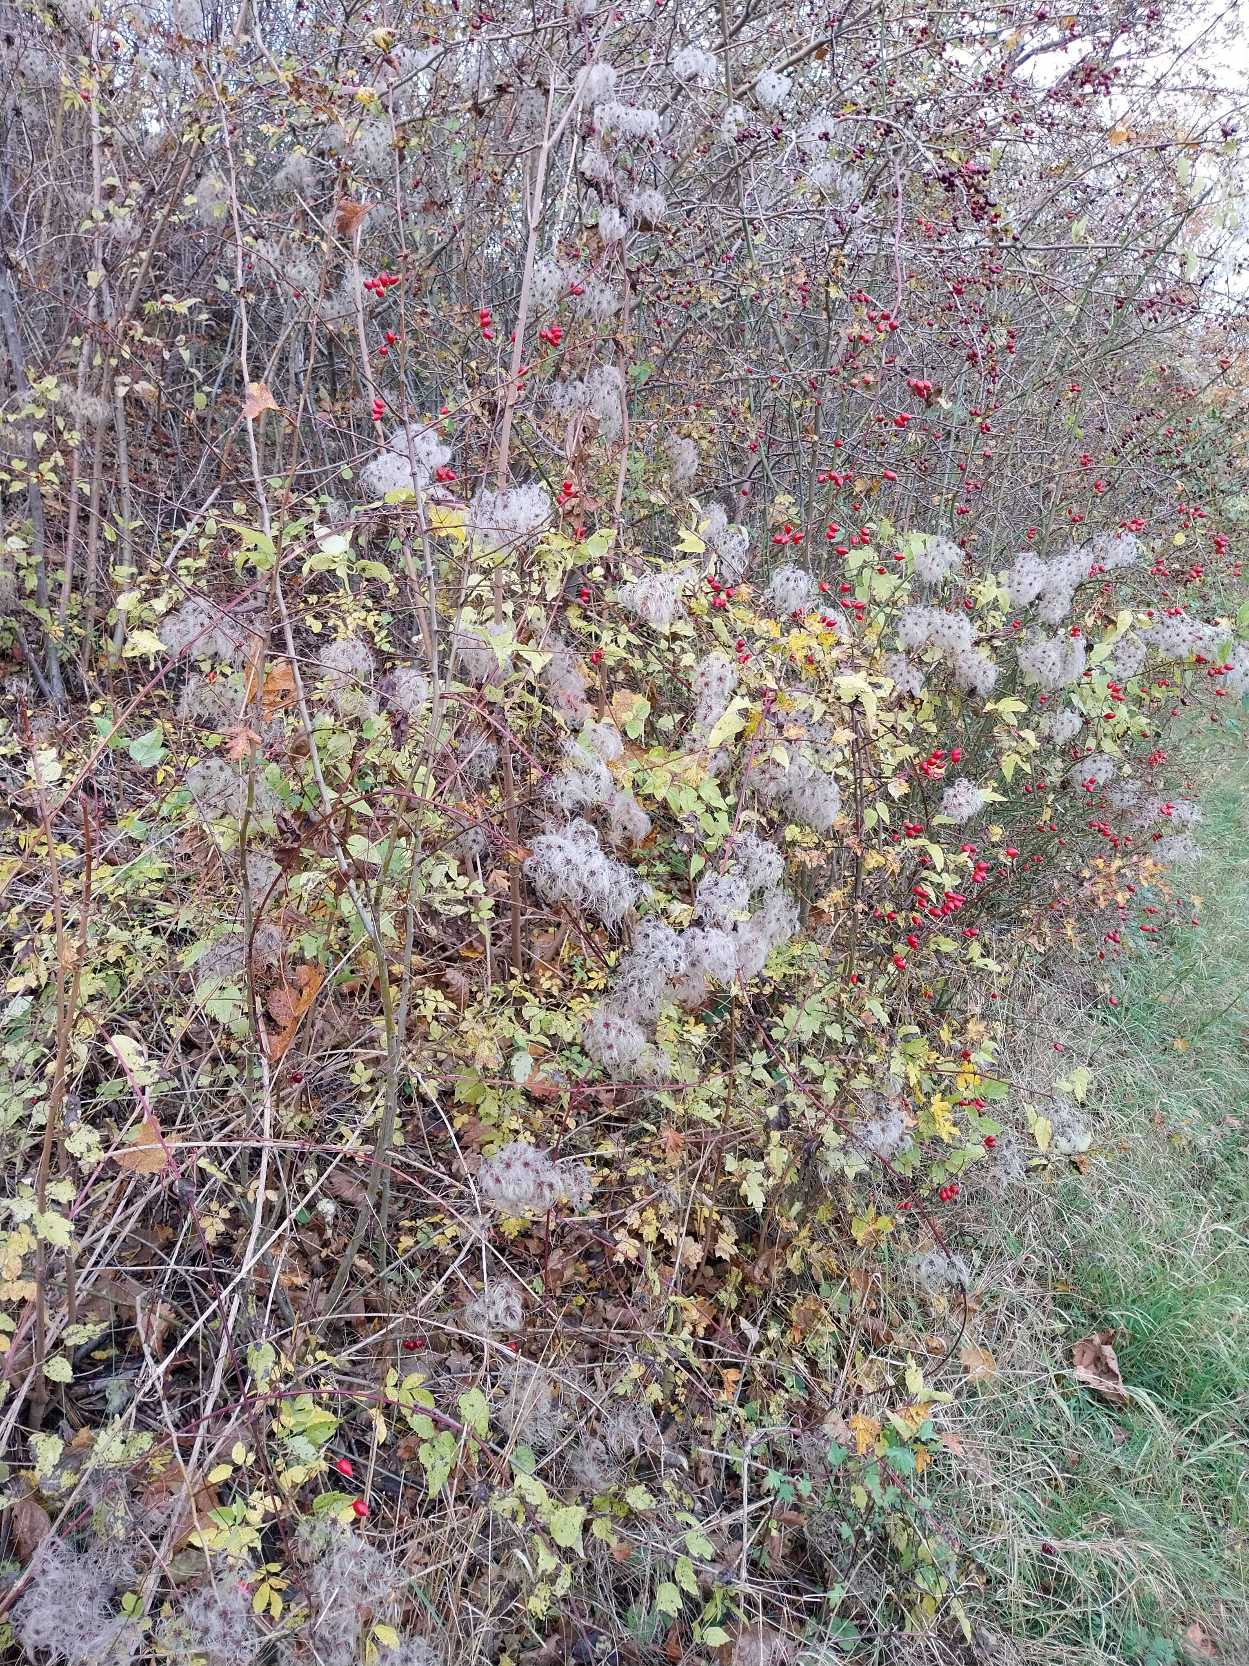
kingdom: Plantae
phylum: Tracheophyta
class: Magnoliopsida
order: Ranunculales
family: Ranunculaceae
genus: Clematis
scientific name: Clematis vitalba
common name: Skovranke
